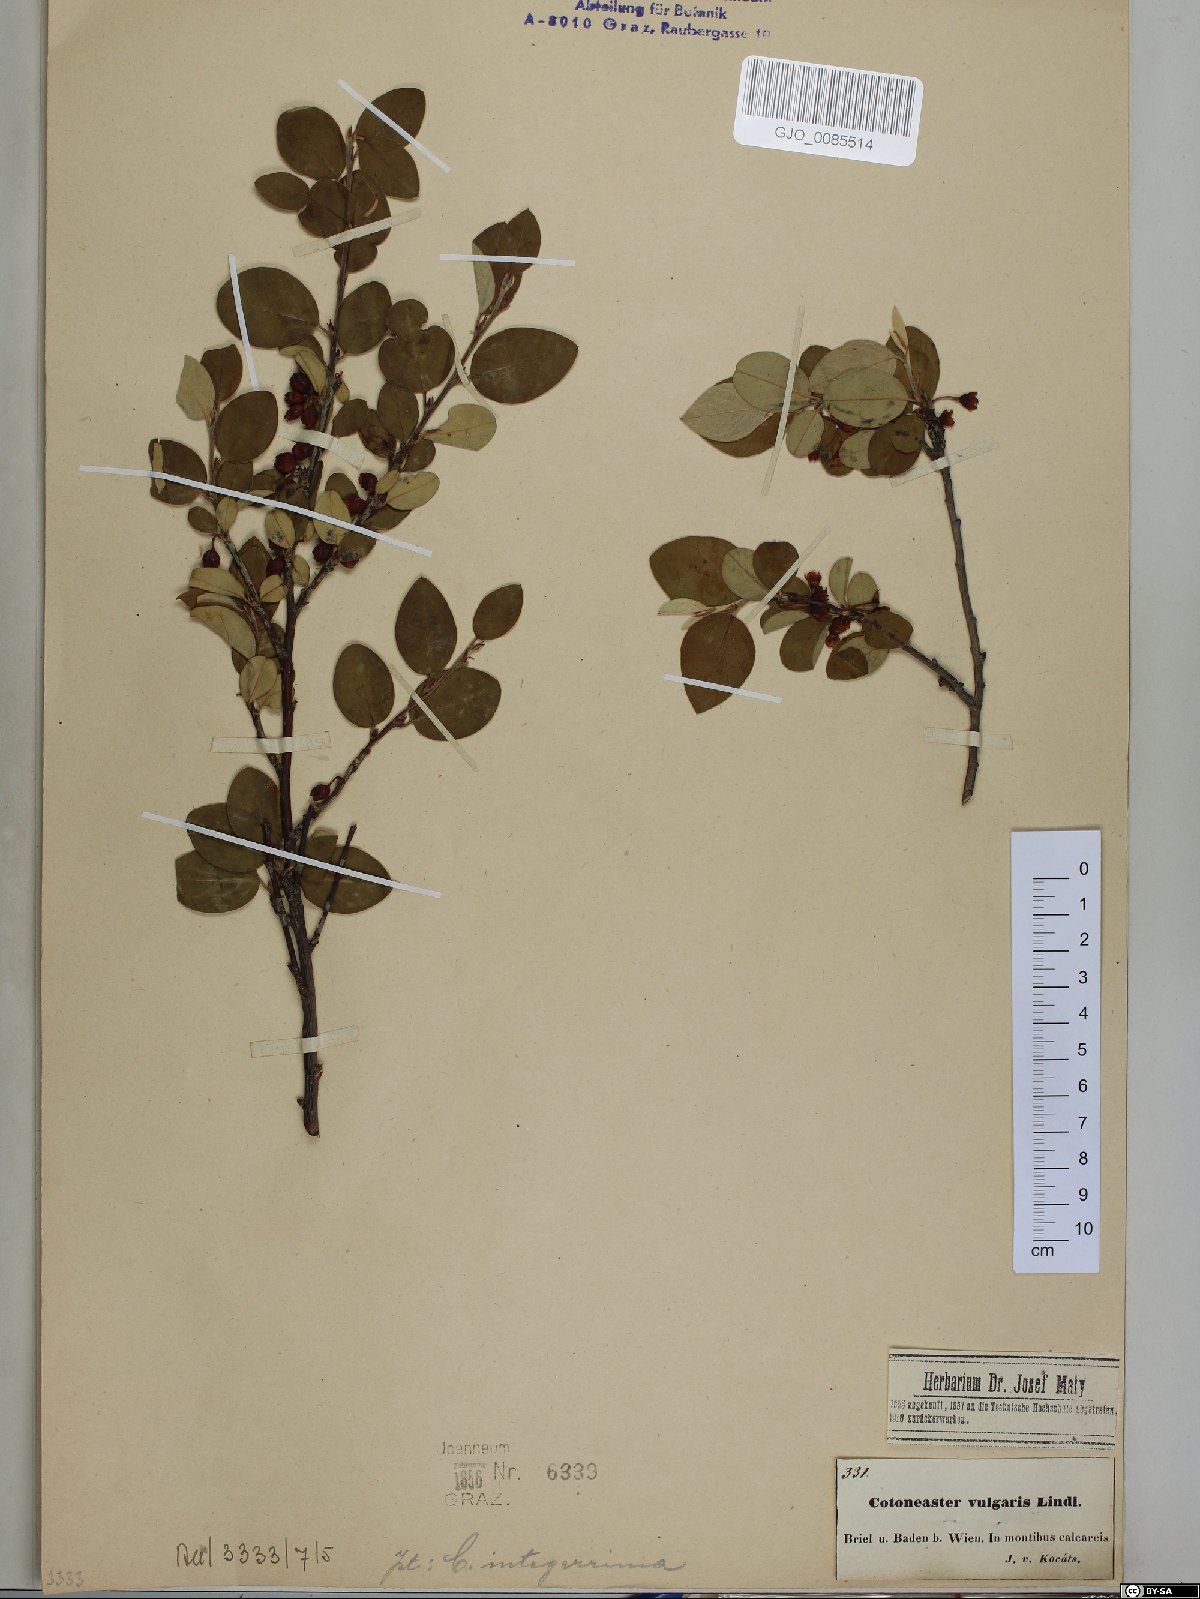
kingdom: Plantae
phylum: Tracheophyta
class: Magnoliopsida
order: Rosales
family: Rosaceae
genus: Cotoneaster
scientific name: Cotoneaster integerrimus
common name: Wild cotoneaster
